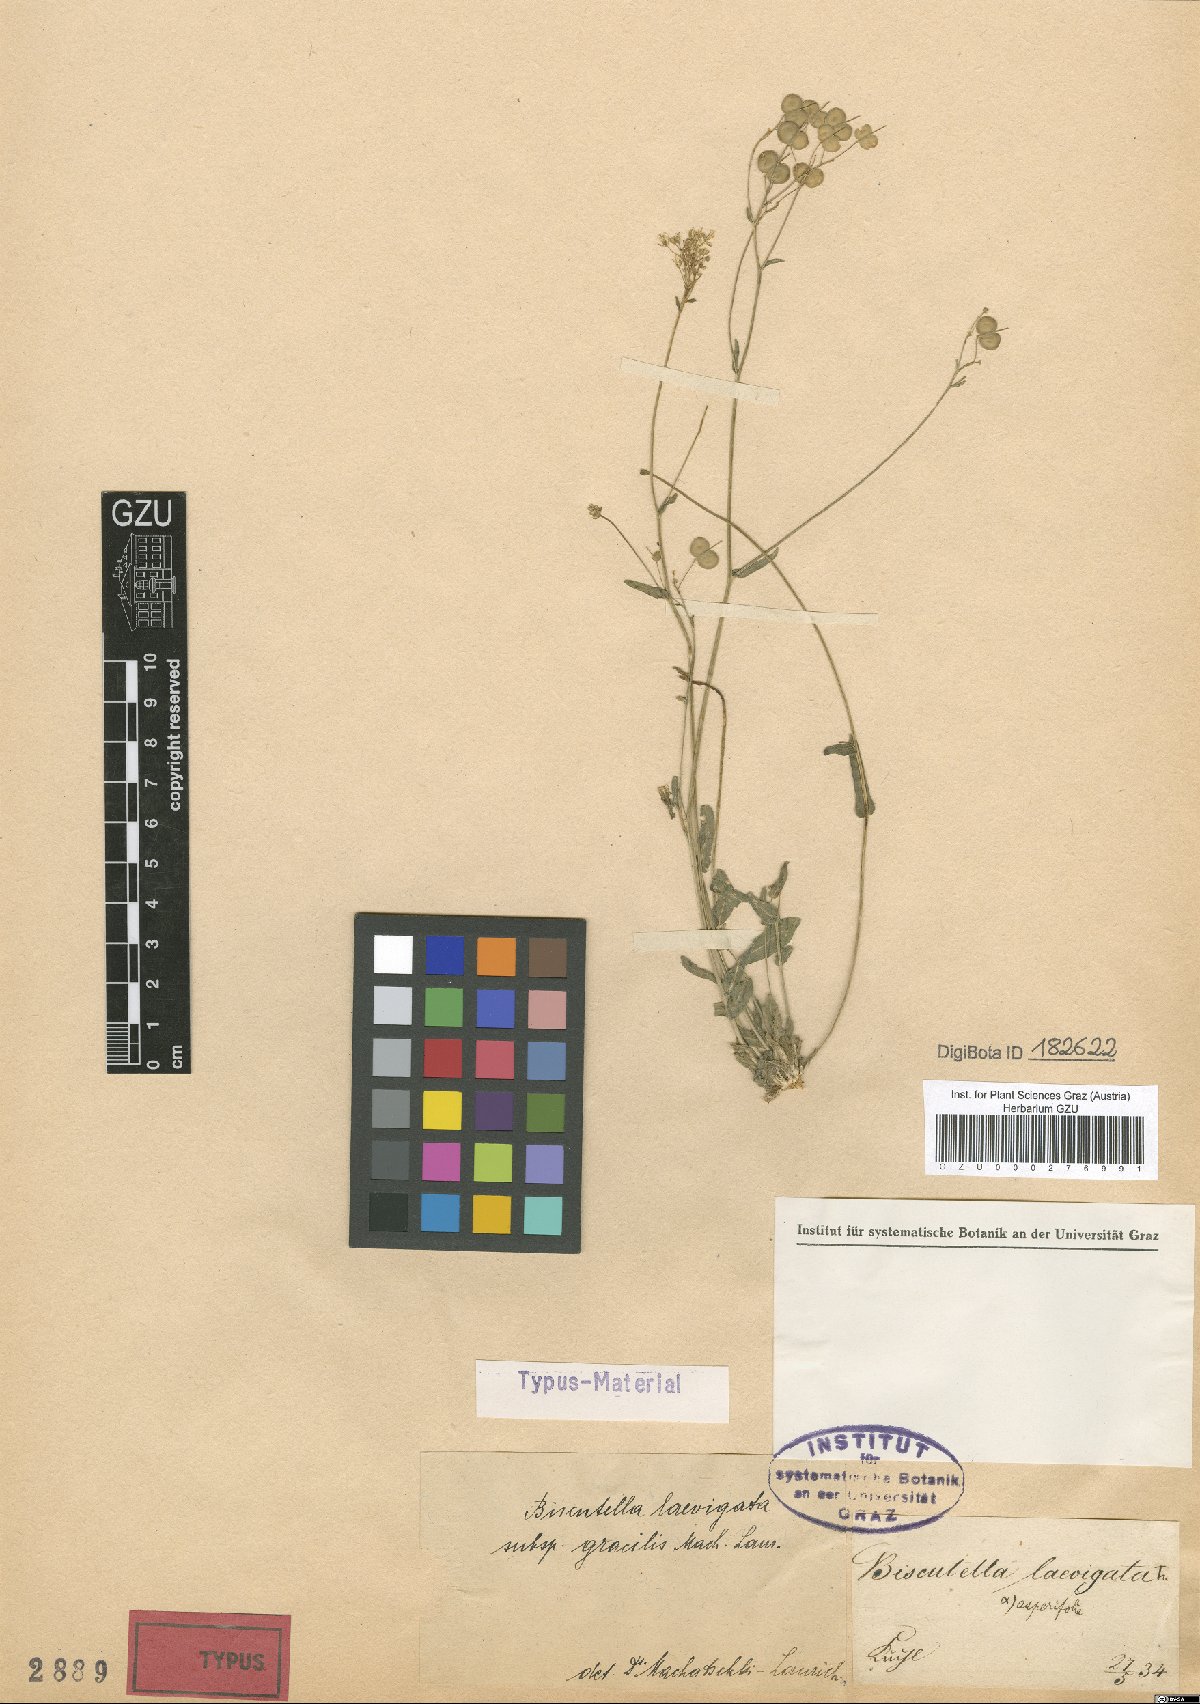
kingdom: Plantae
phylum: Tracheophyta
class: Magnoliopsida
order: Brassicales
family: Brassicaceae
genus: Biscutella
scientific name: Biscutella laevigata
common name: Buckler mustard
